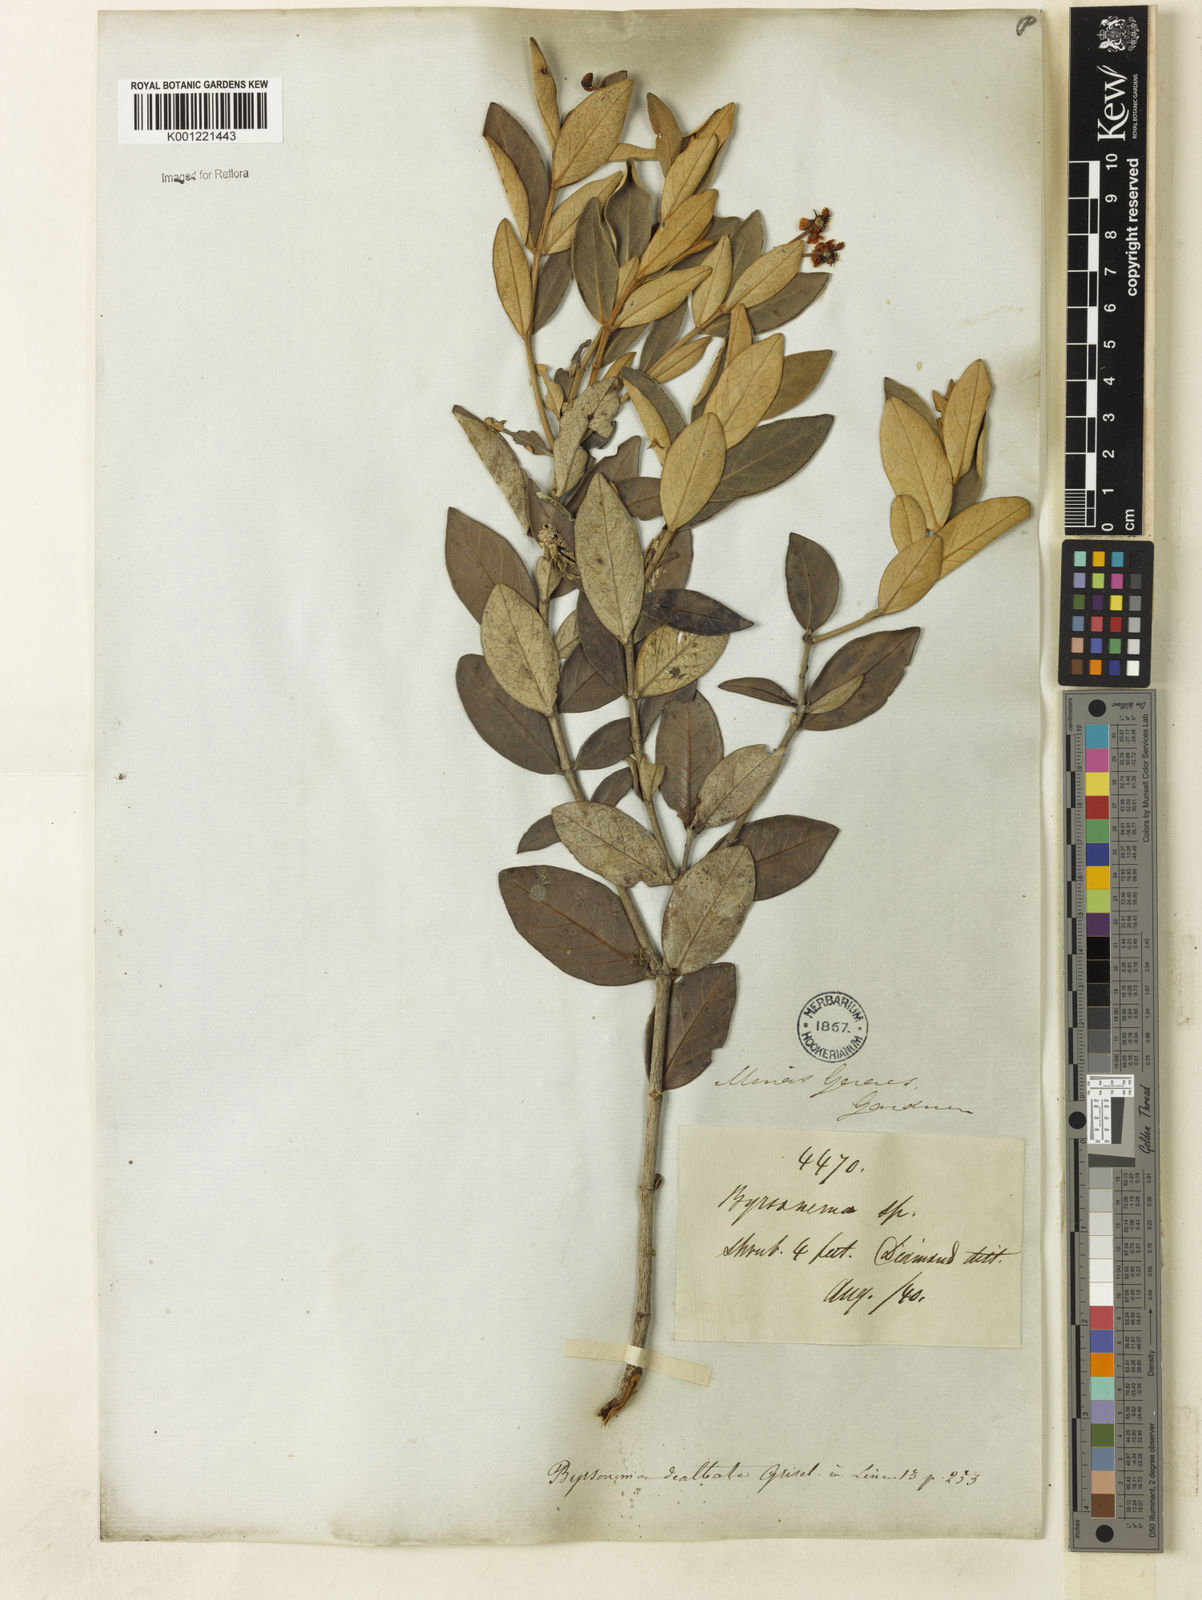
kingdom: Plantae
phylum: Tracheophyta
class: Magnoliopsida
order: Malpighiales
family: Malpighiaceae
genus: Byrsonima
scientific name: Byrsonima dealbata
